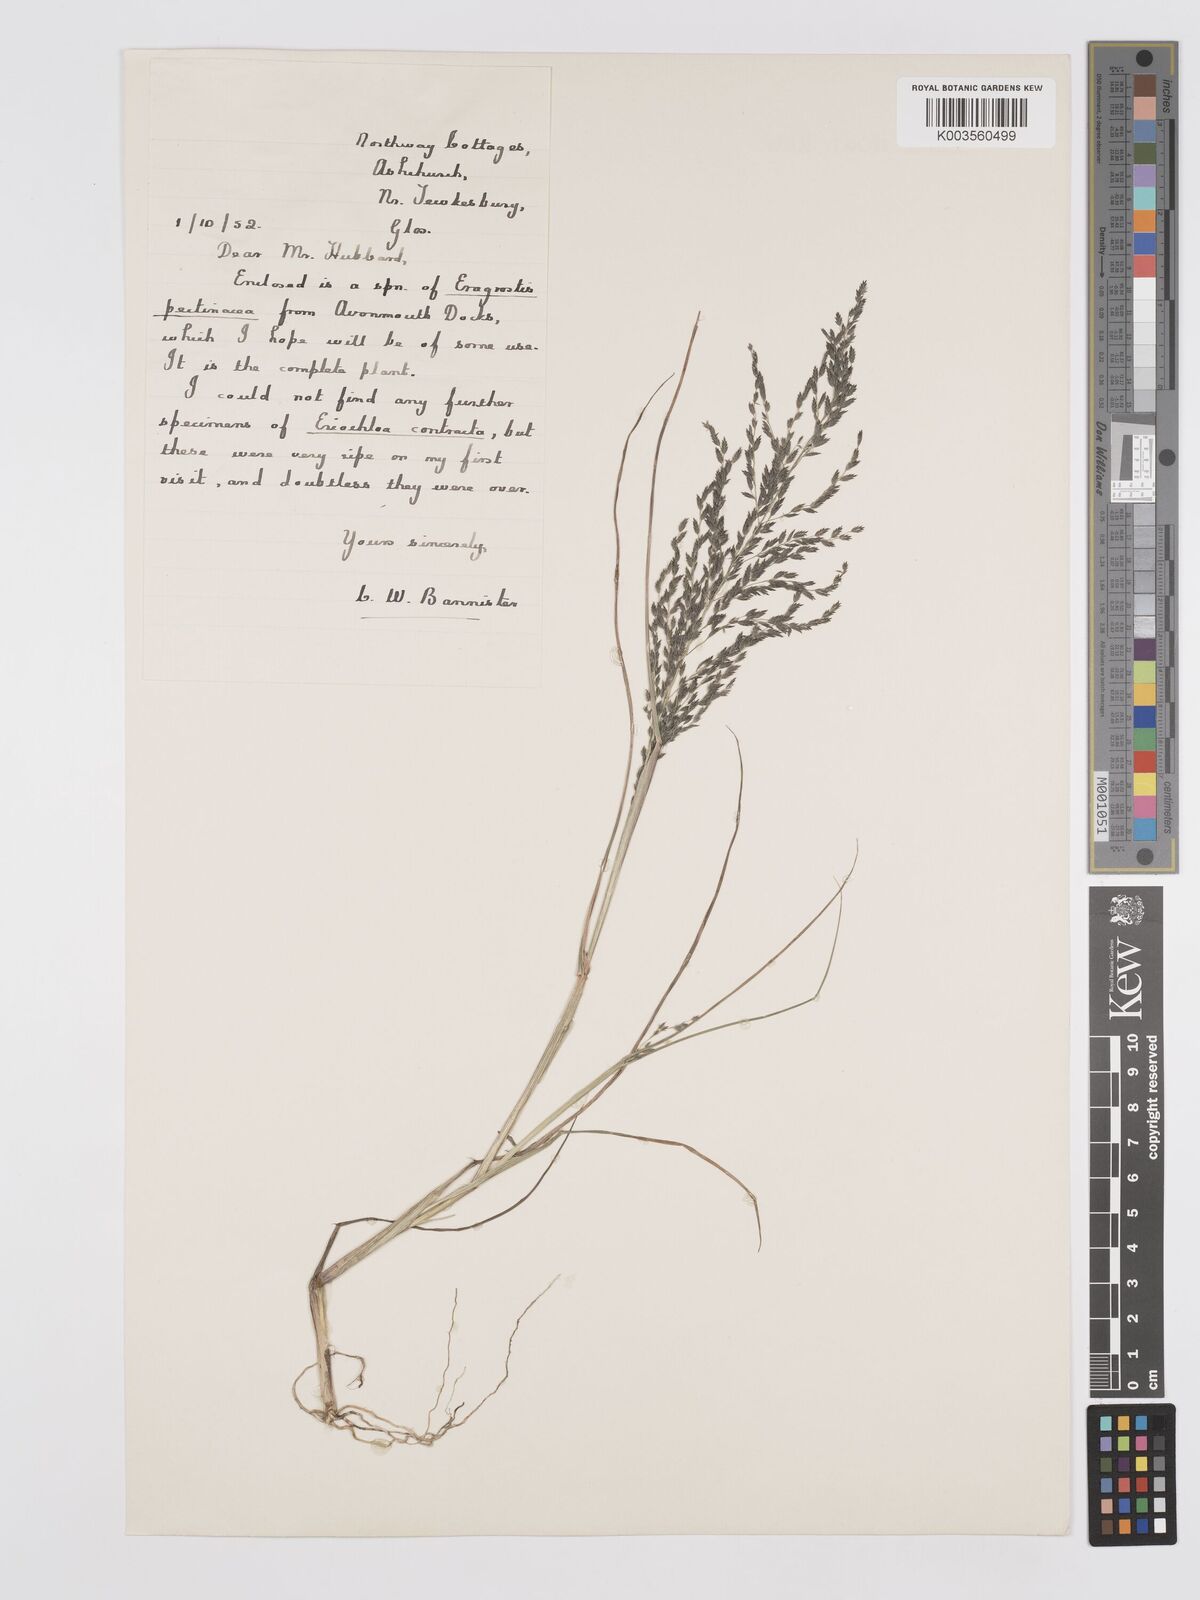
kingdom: Plantae
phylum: Tracheophyta
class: Liliopsida
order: Poales
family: Poaceae
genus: Eragrostis
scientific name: Eragrostis pectinacea
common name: Tufted lovegrass
